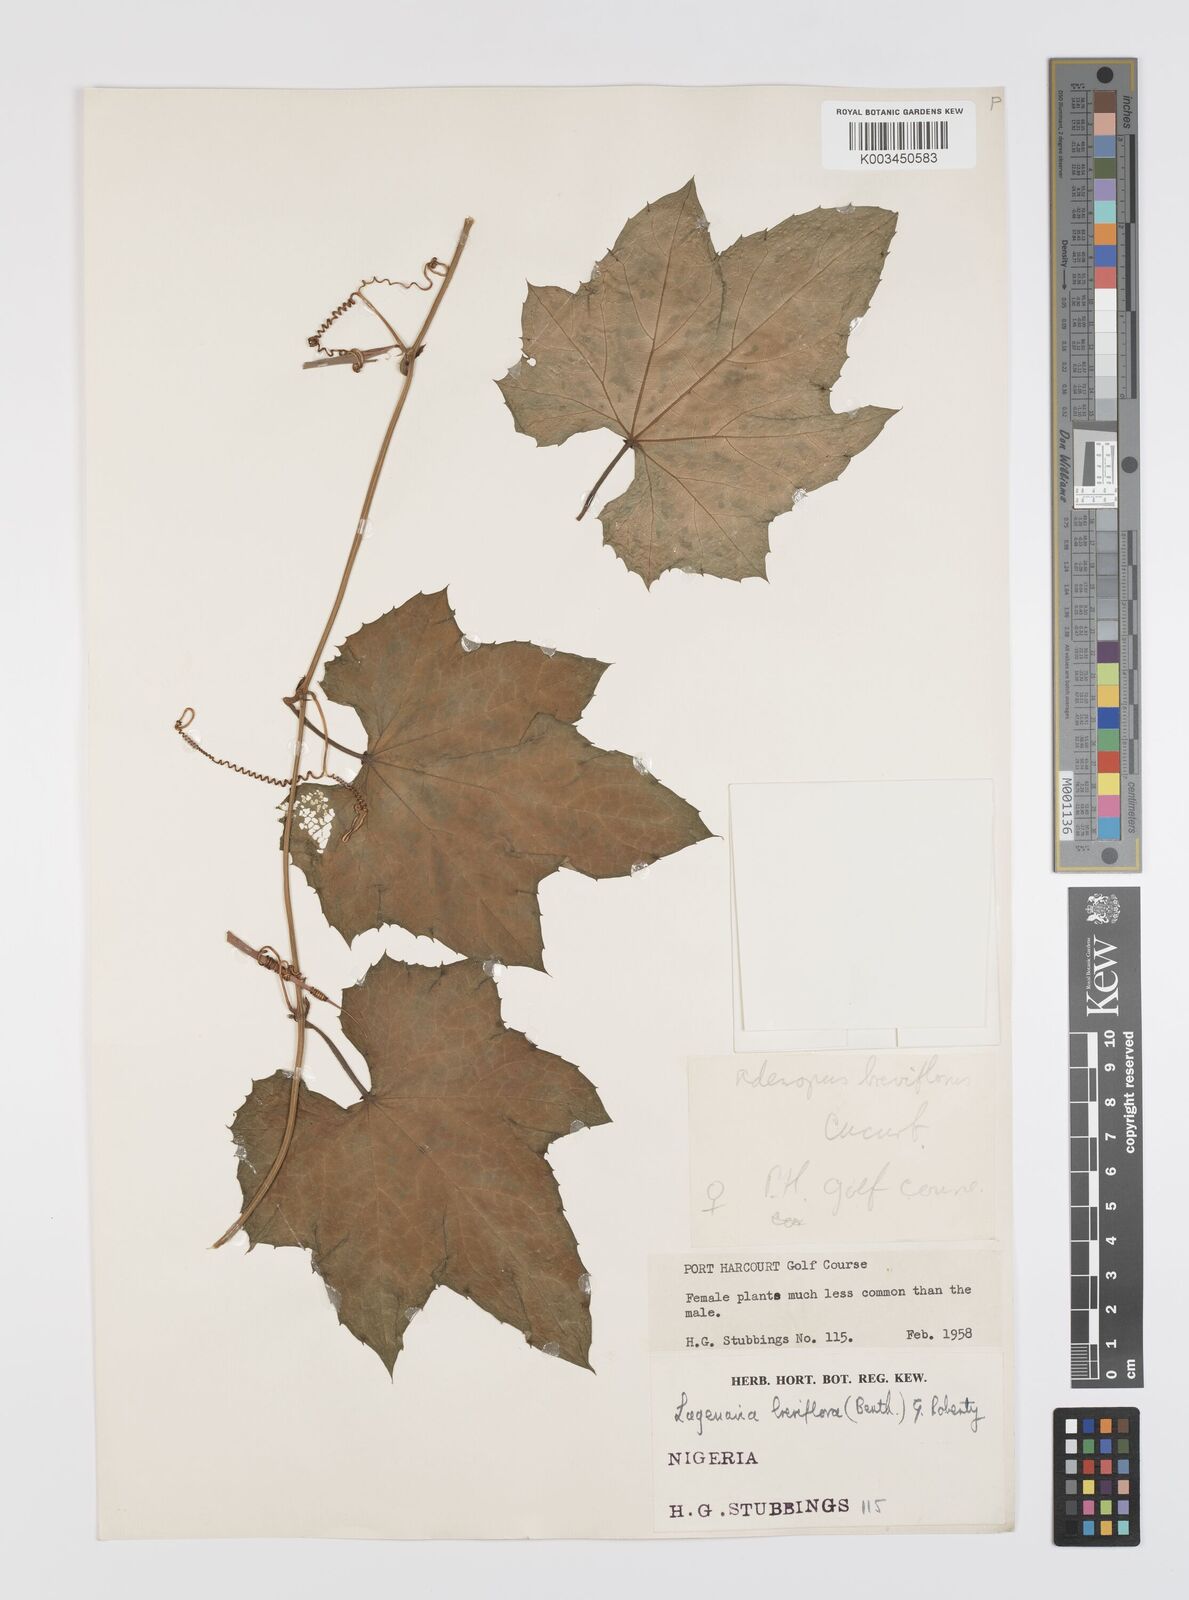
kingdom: Plantae
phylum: Tracheophyta
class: Magnoliopsida
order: Cucurbitales
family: Cucurbitaceae
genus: Lagenaria
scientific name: Lagenaria breviflora
